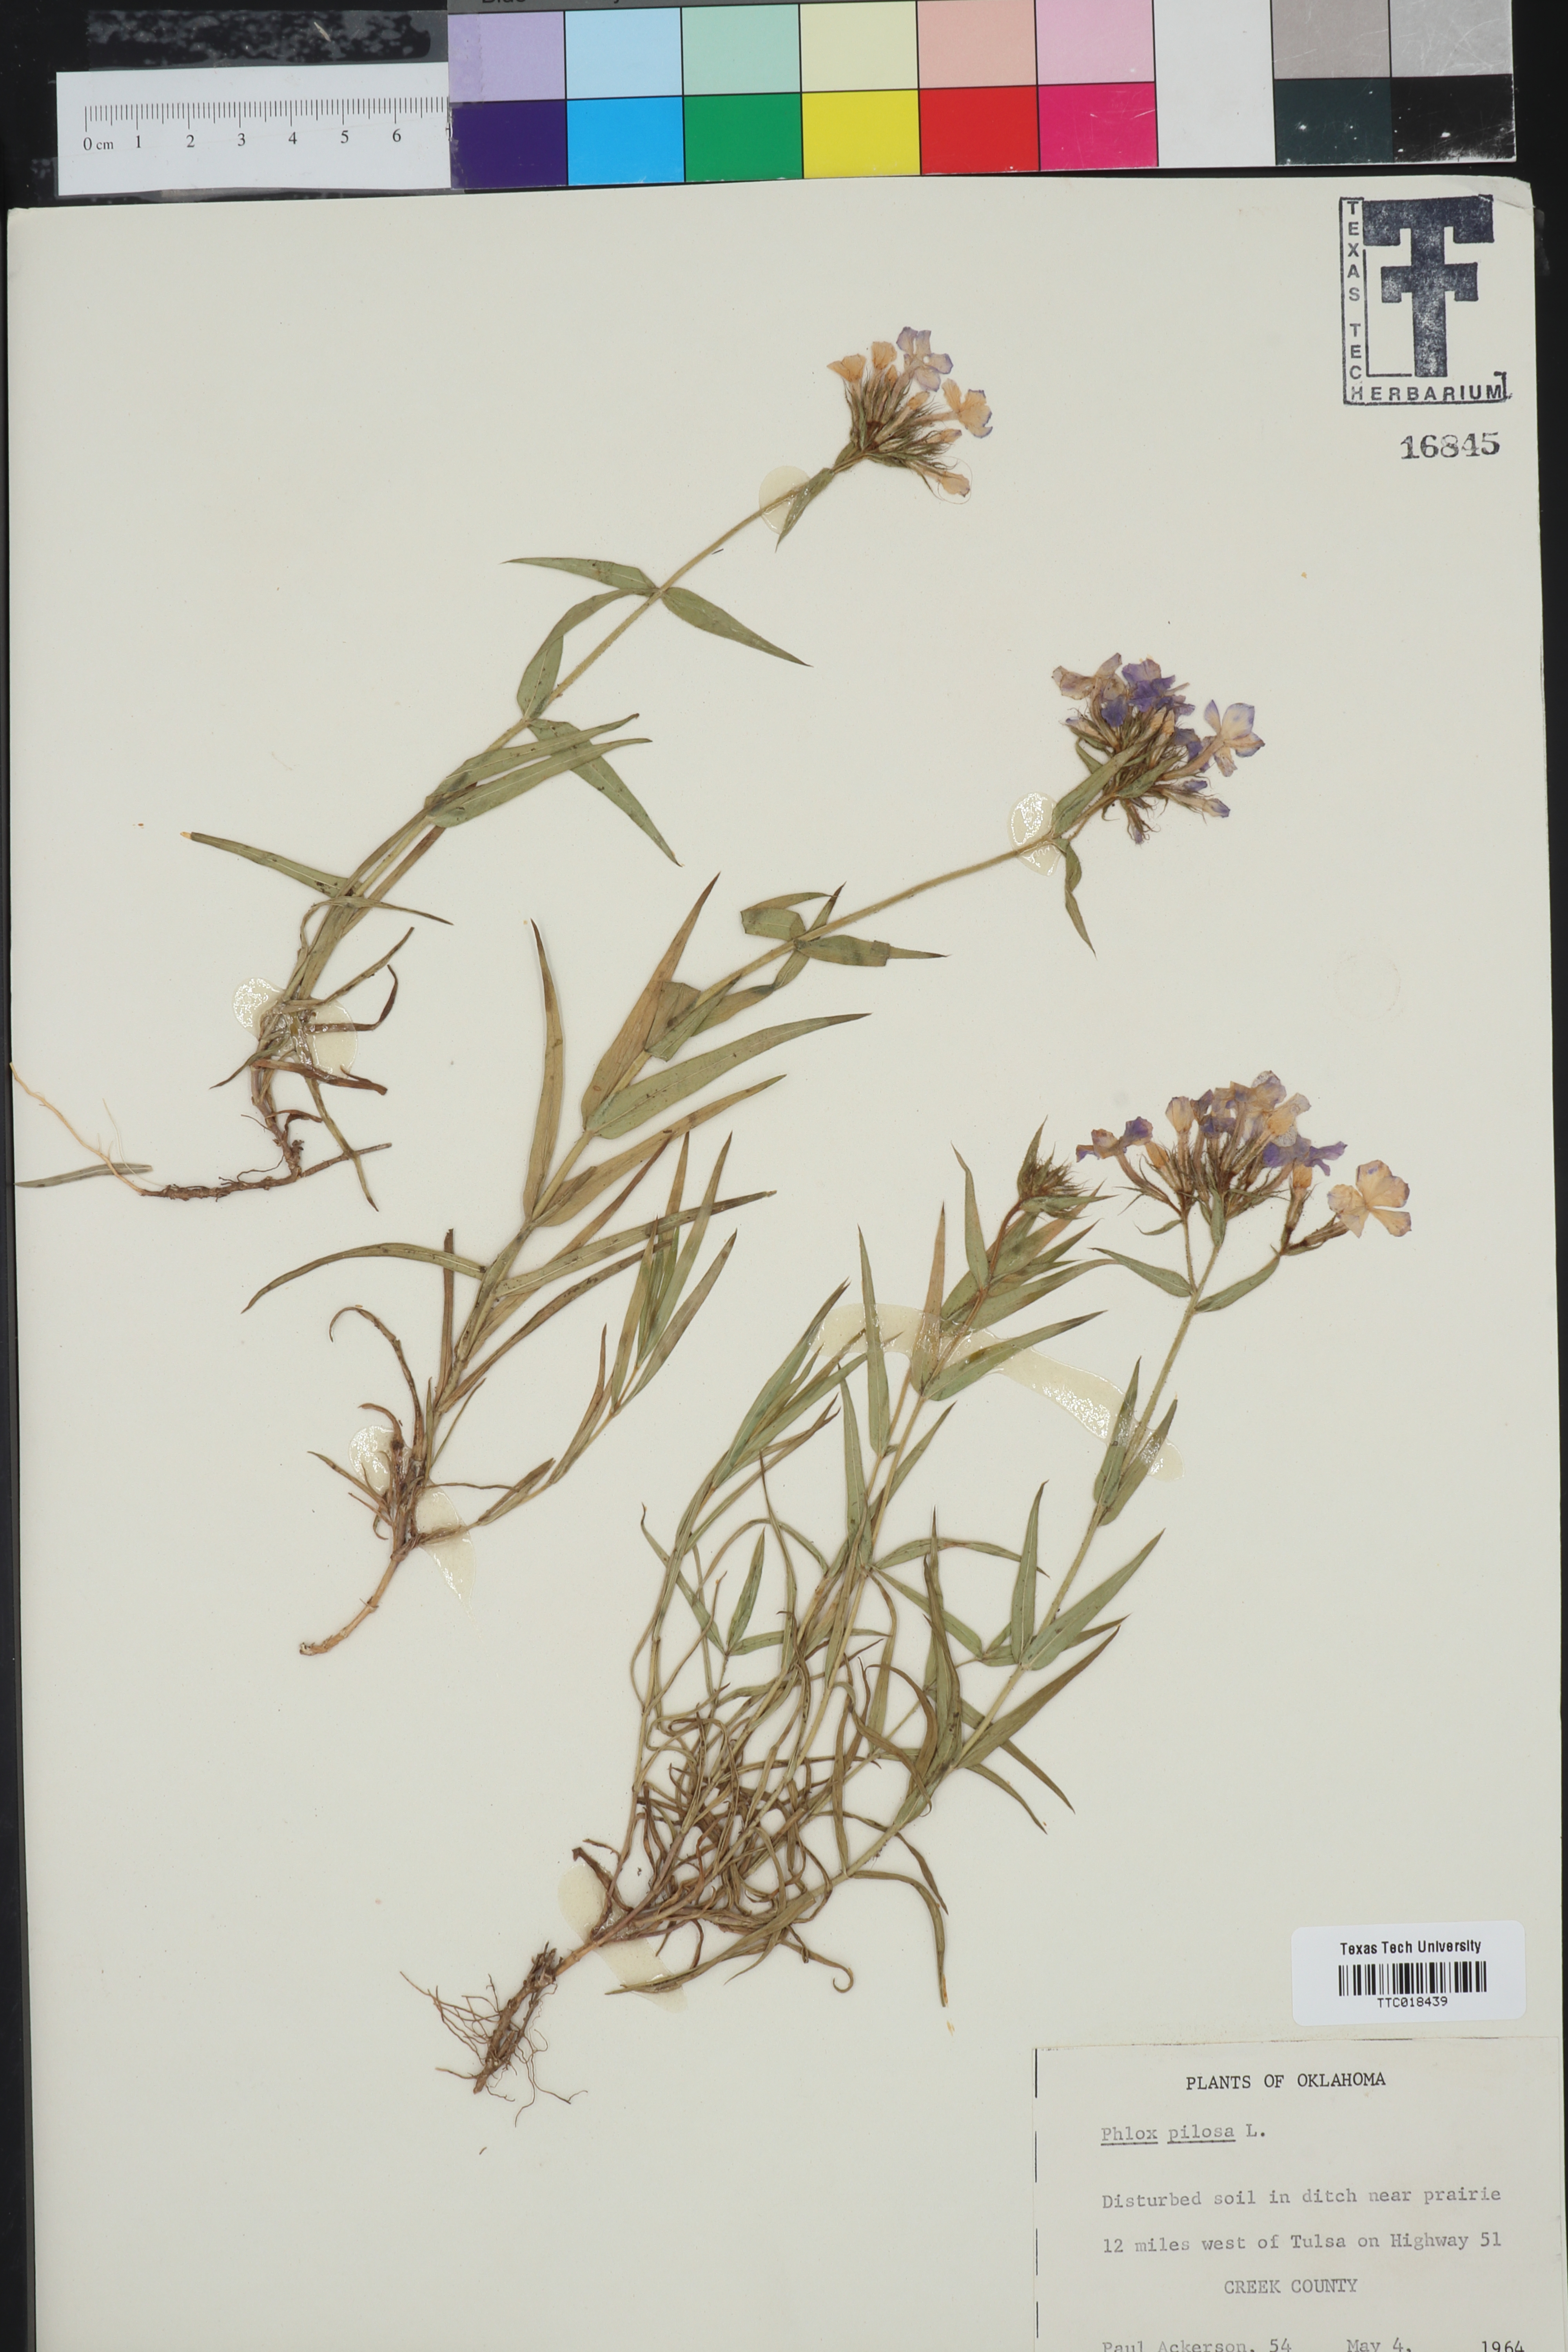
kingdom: Plantae
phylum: Tracheophyta
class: Magnoliopsida
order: Ericales
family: Polemoniaceae
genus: Phlox
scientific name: Phlox pilosa
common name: Prairie phlox
